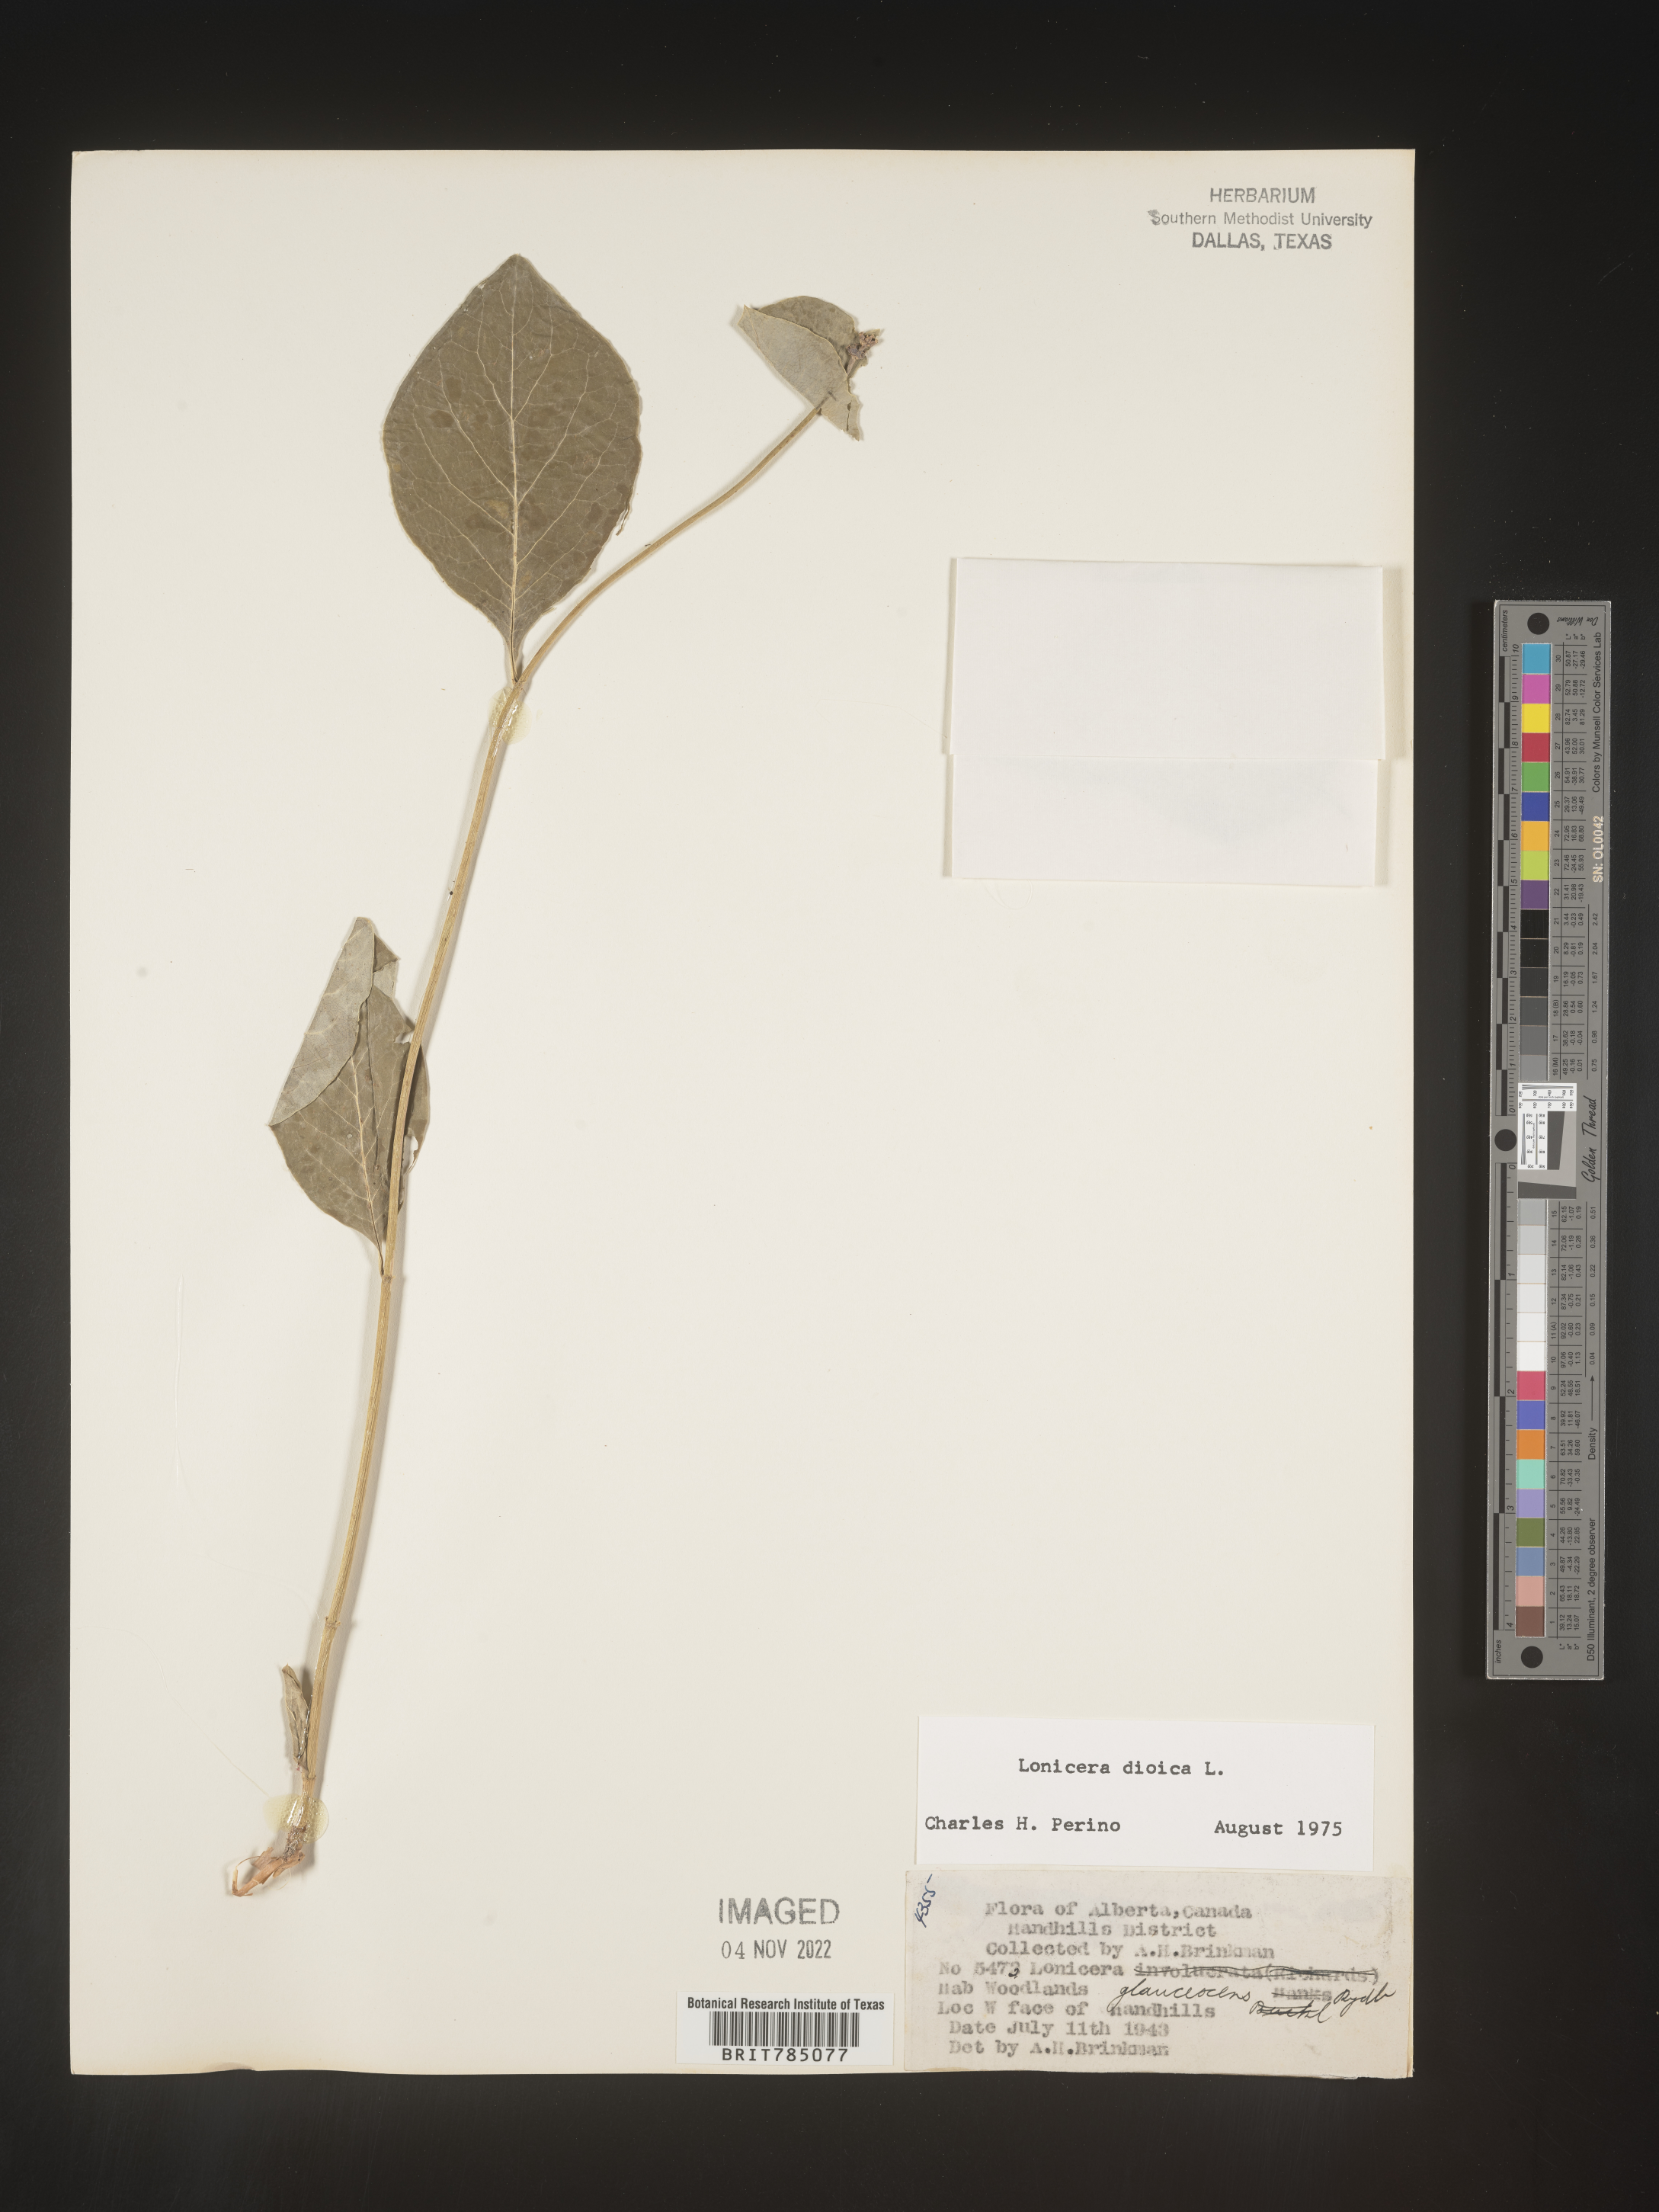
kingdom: Plantae
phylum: Tracheophyta
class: Magnoliopsida
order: Dipsacales
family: Caprifoliaceae
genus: Lonicera
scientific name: Lonicera dioica
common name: Limber honeysuckle
